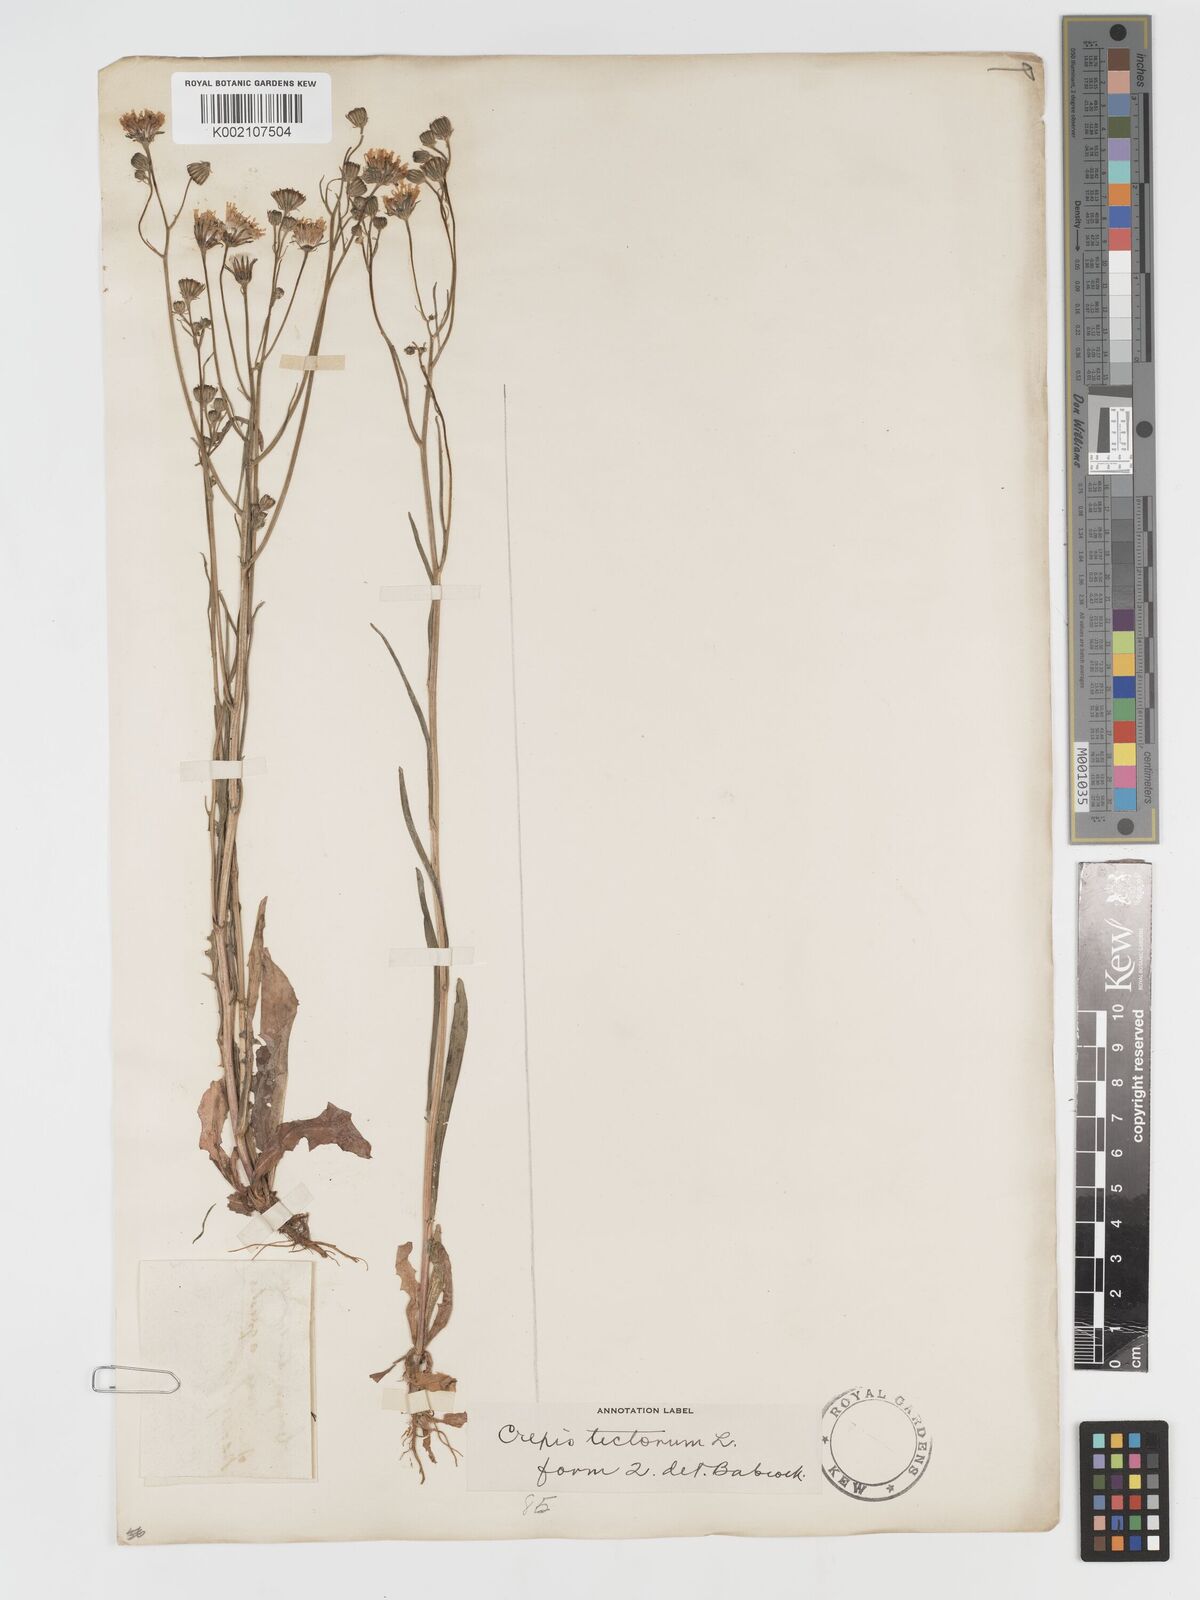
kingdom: Plantae
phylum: Tracheophyta
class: Magnoliopsida
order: Asterales
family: Asteraceae
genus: Crepis
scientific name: Crepis tectorum
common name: Narrow-leaved hawk's-beard
